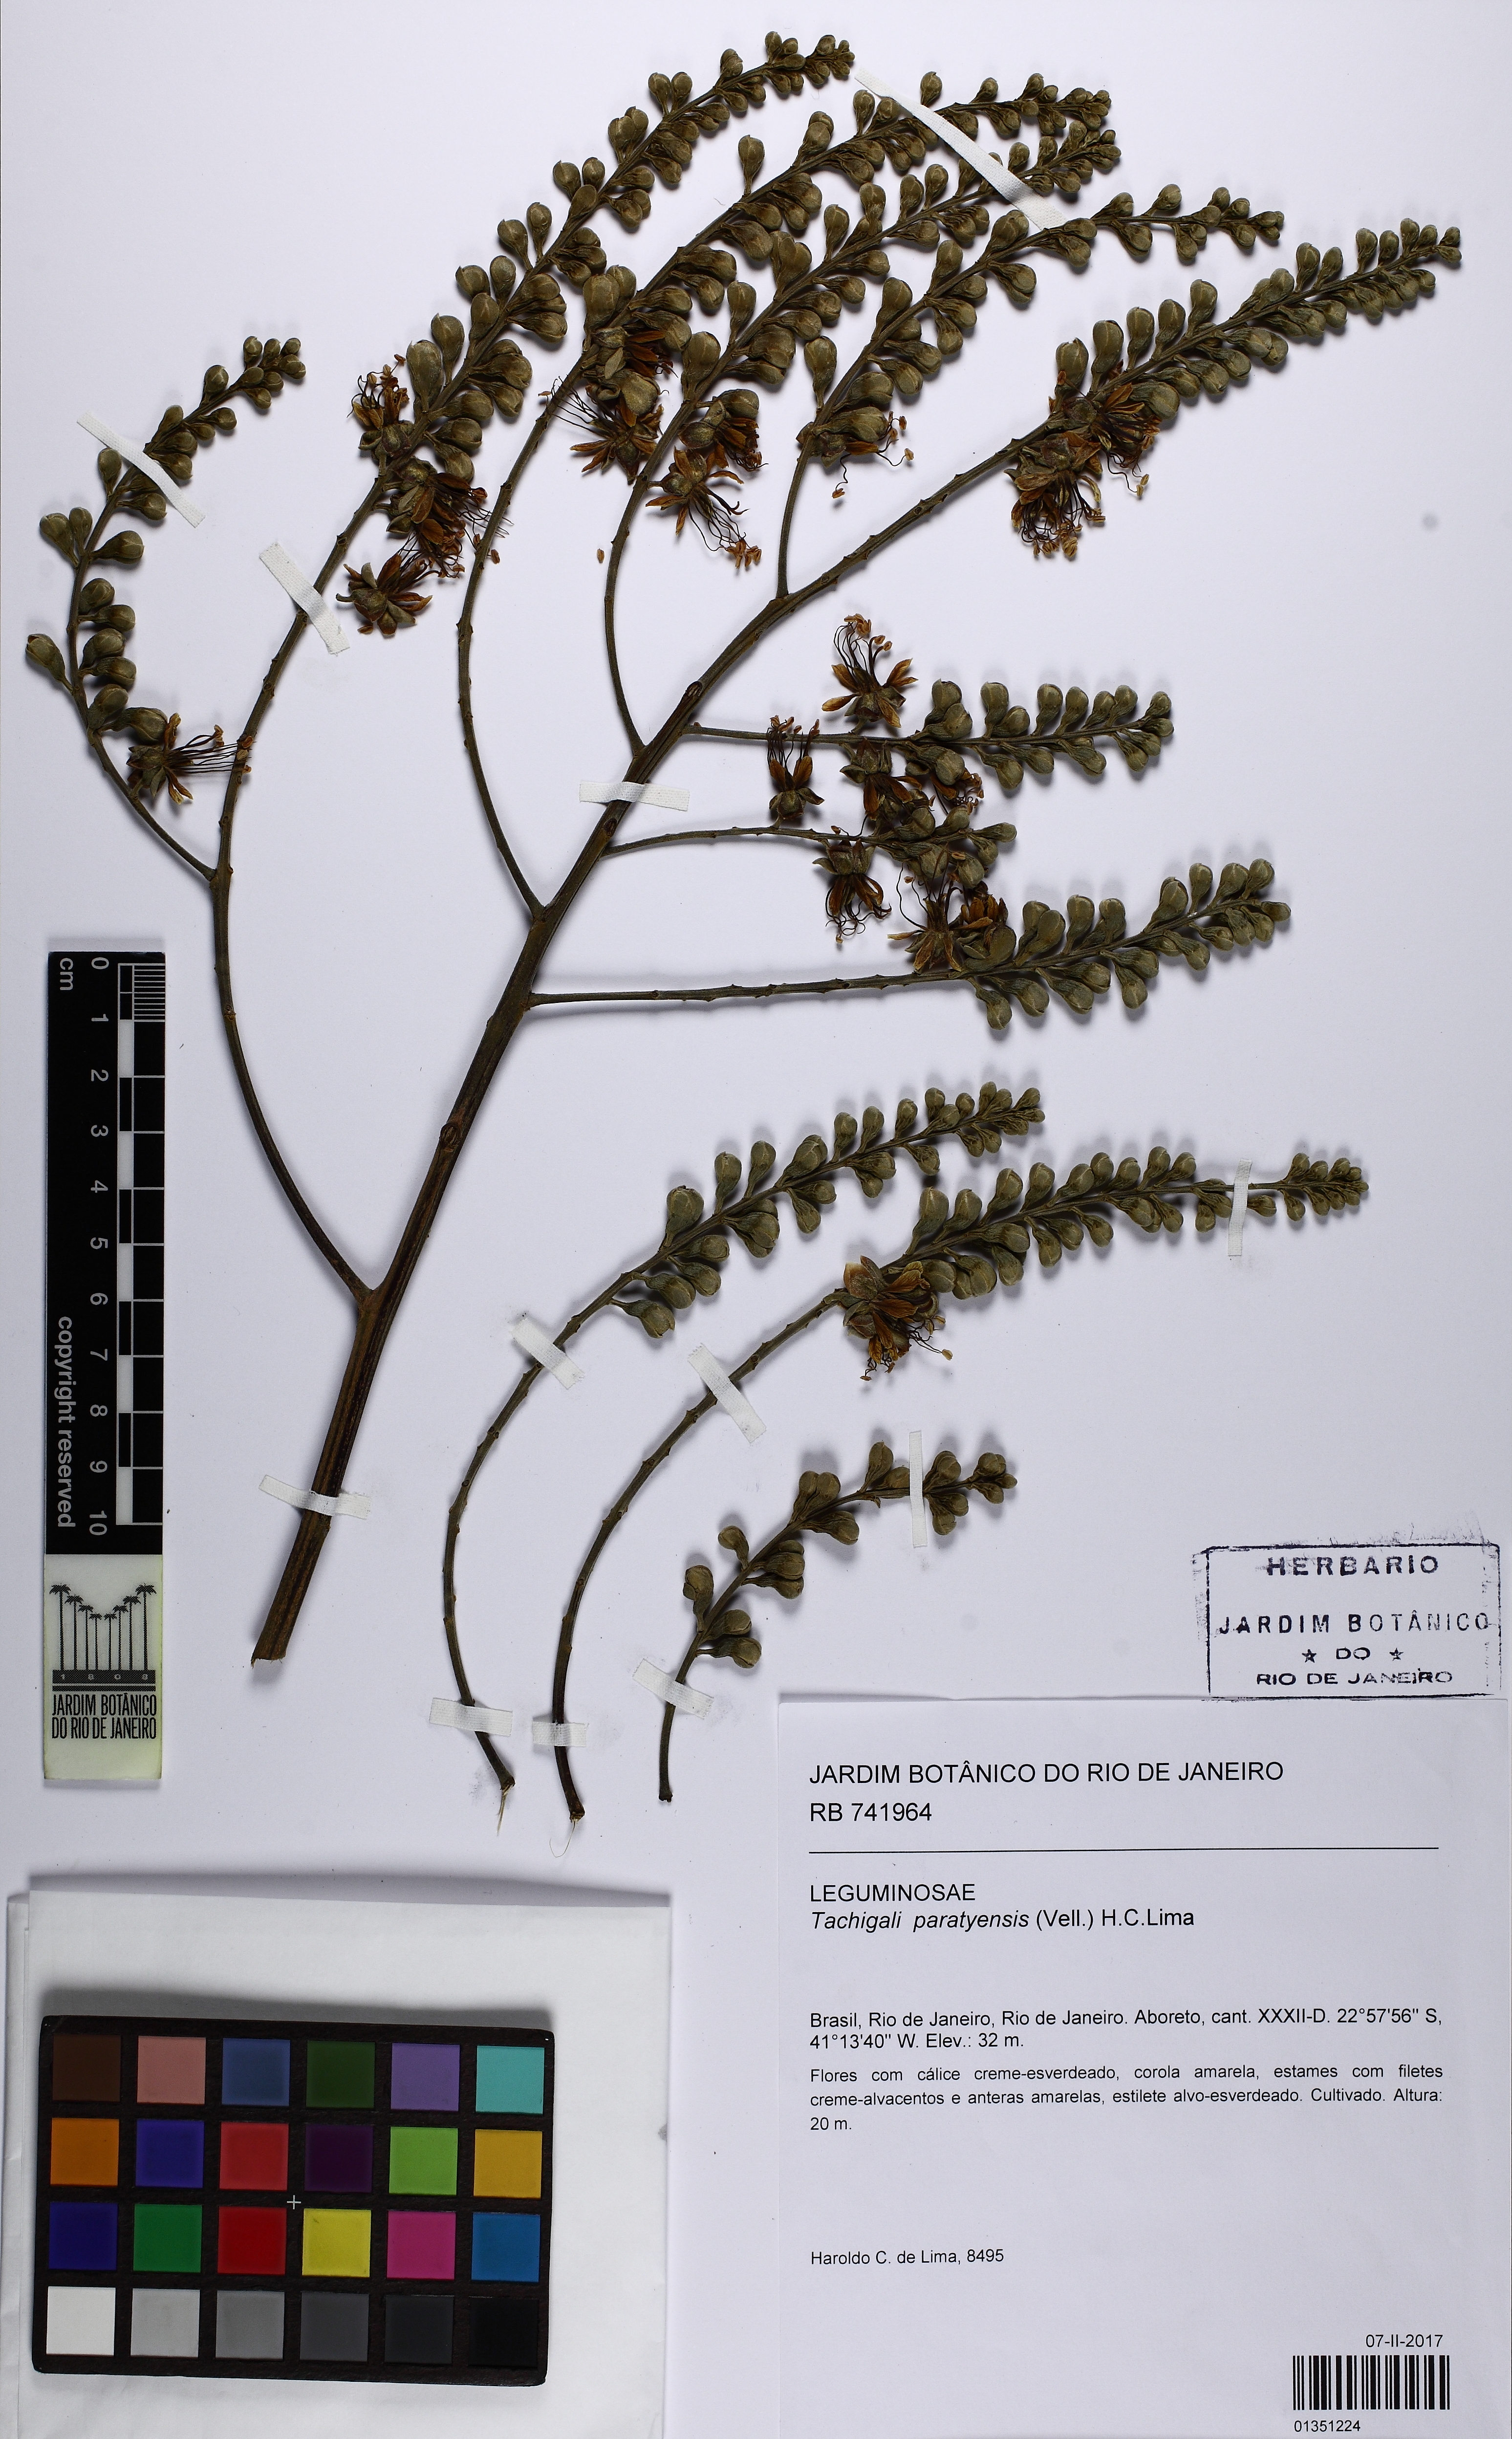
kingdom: Plantae
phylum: Tracheophyta
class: Magnoliopsida
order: Fabales
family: Fabaceae
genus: Tachigali
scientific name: Tachigali paratyensis
